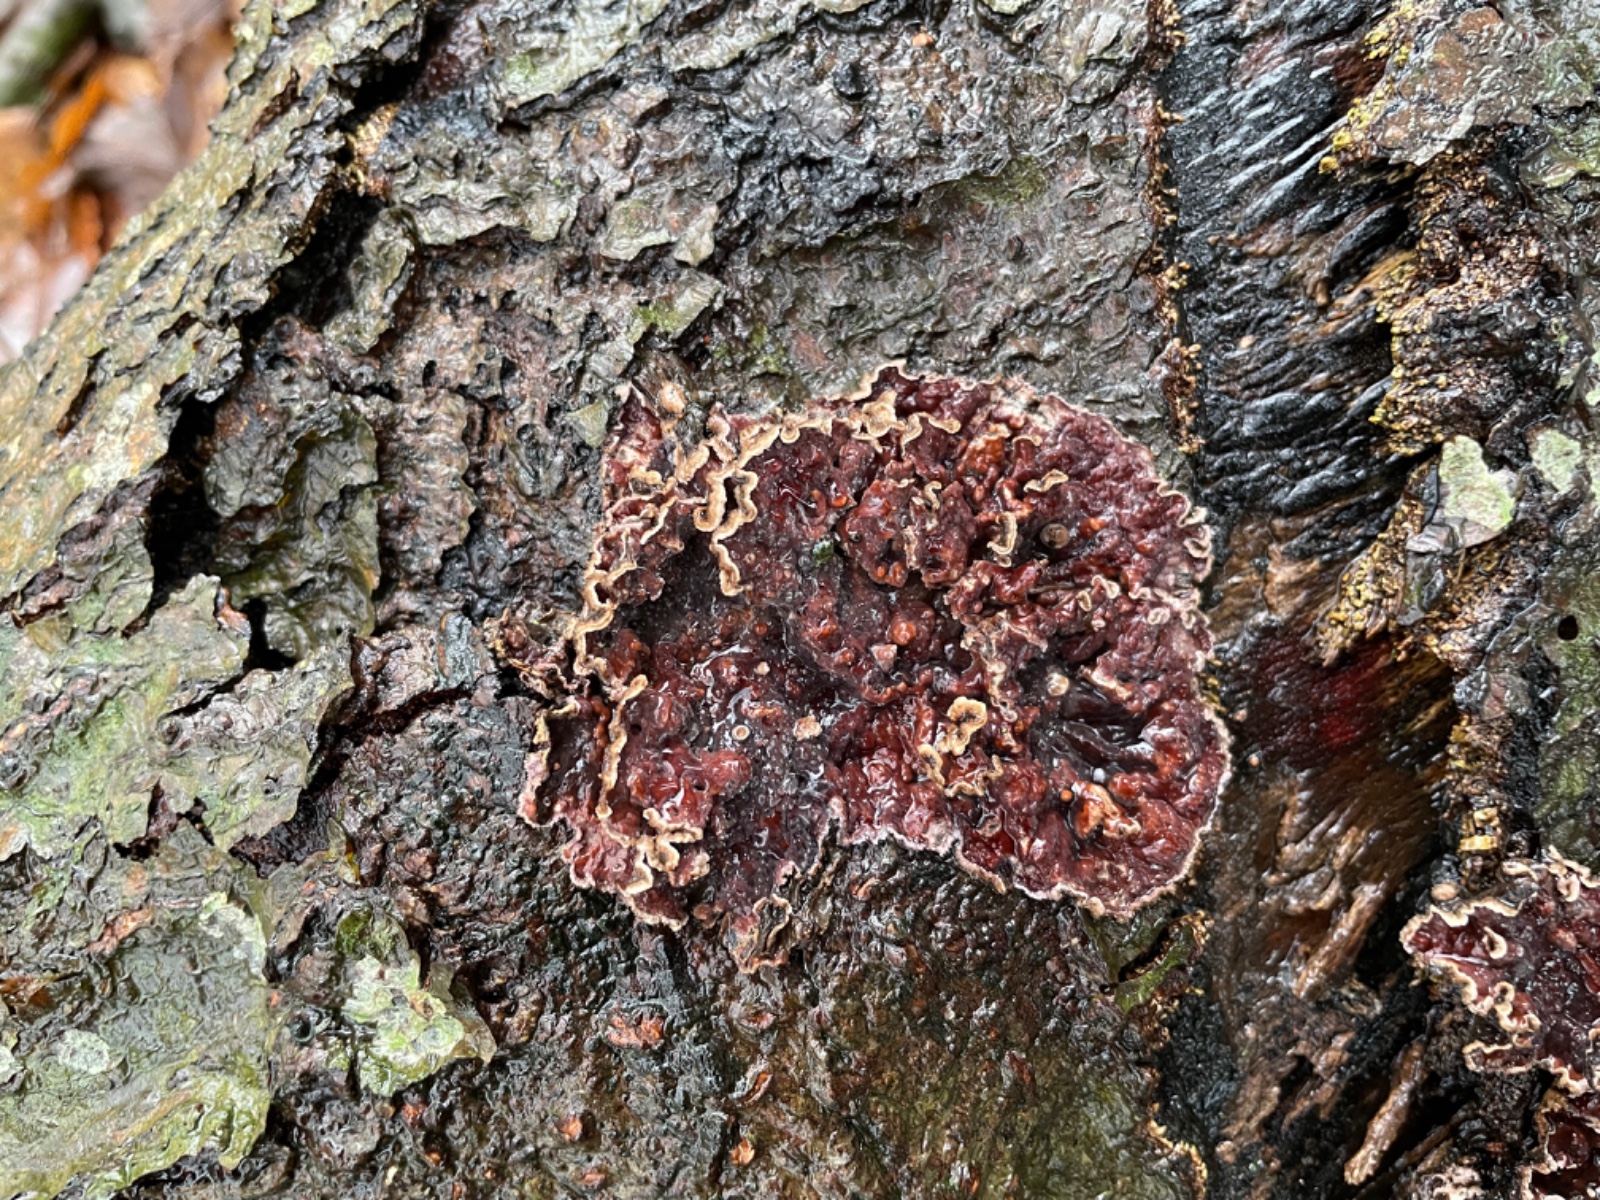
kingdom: Fungi
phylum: Basidiomycota
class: Agaricomycetes
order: Agaricales
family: Cyphellaceae
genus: Chondrostereum
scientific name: Chondrostereum
